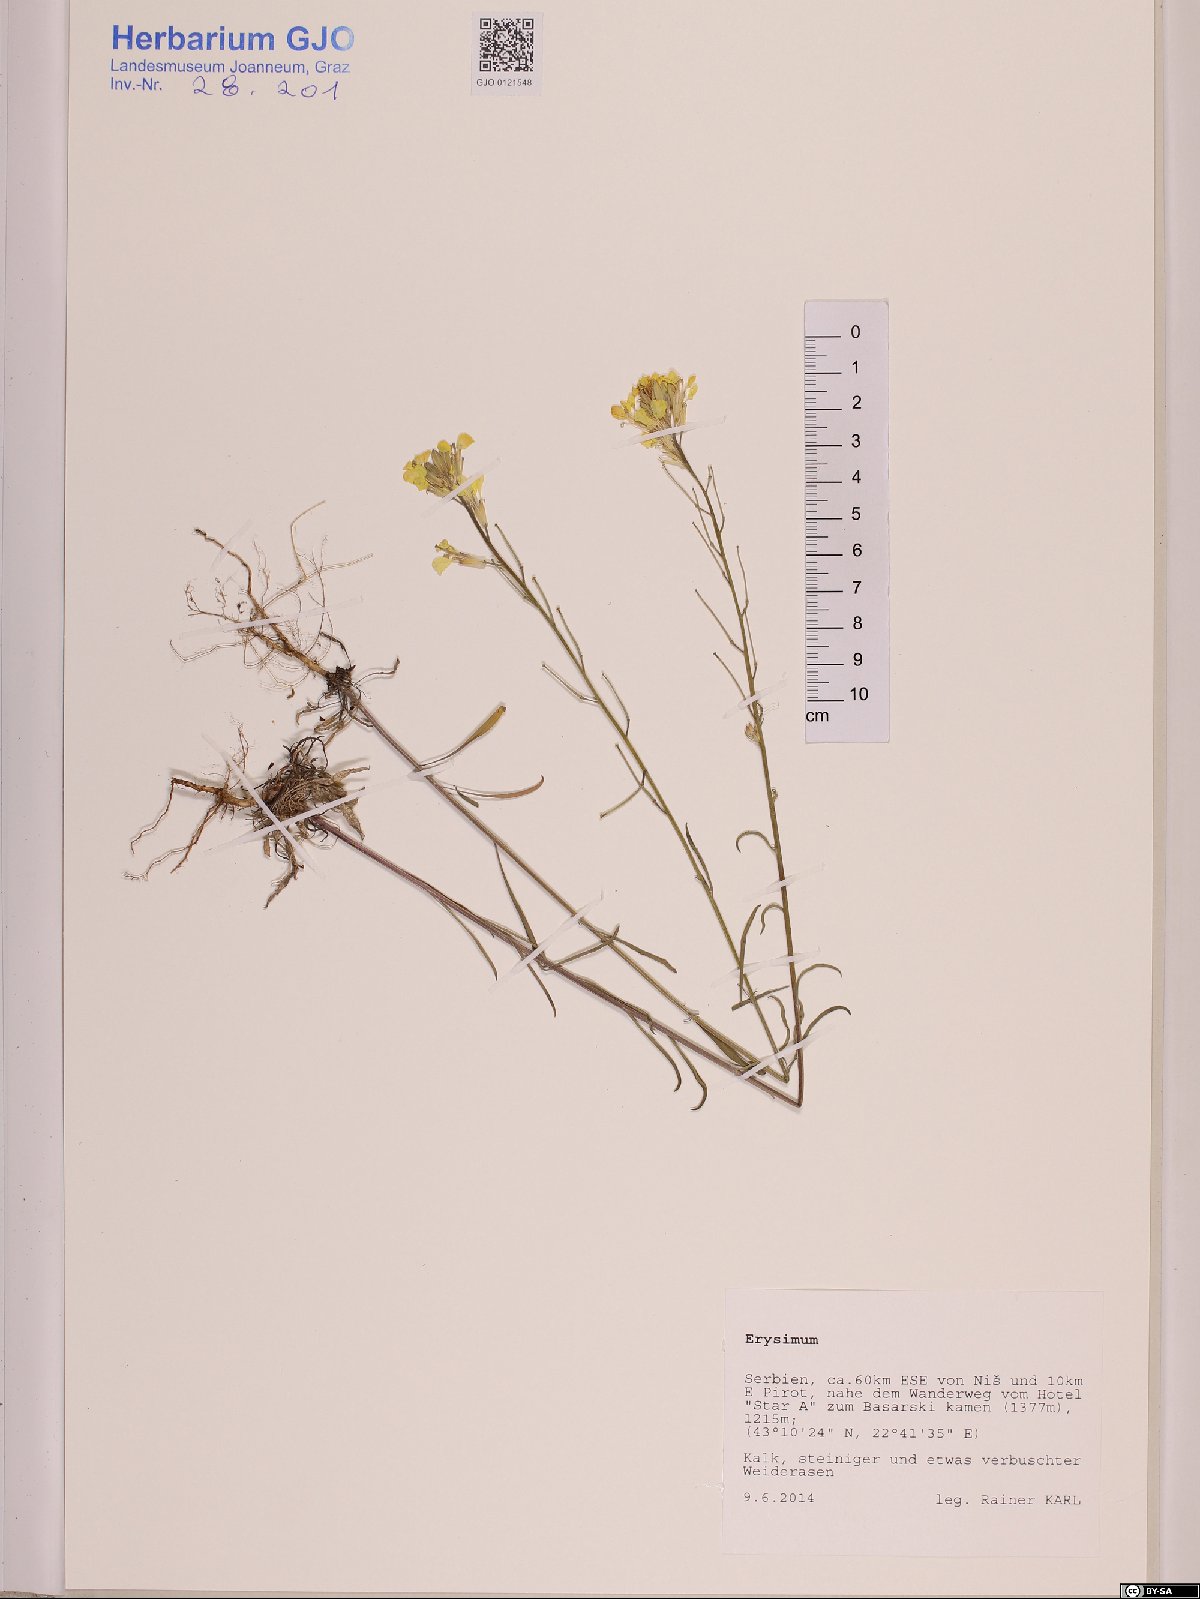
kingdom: Plantae
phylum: Tracheophyta
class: Magnoliopsida
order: Brassicales
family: Brassicaceae
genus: Erysimum
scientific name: Erysimum
